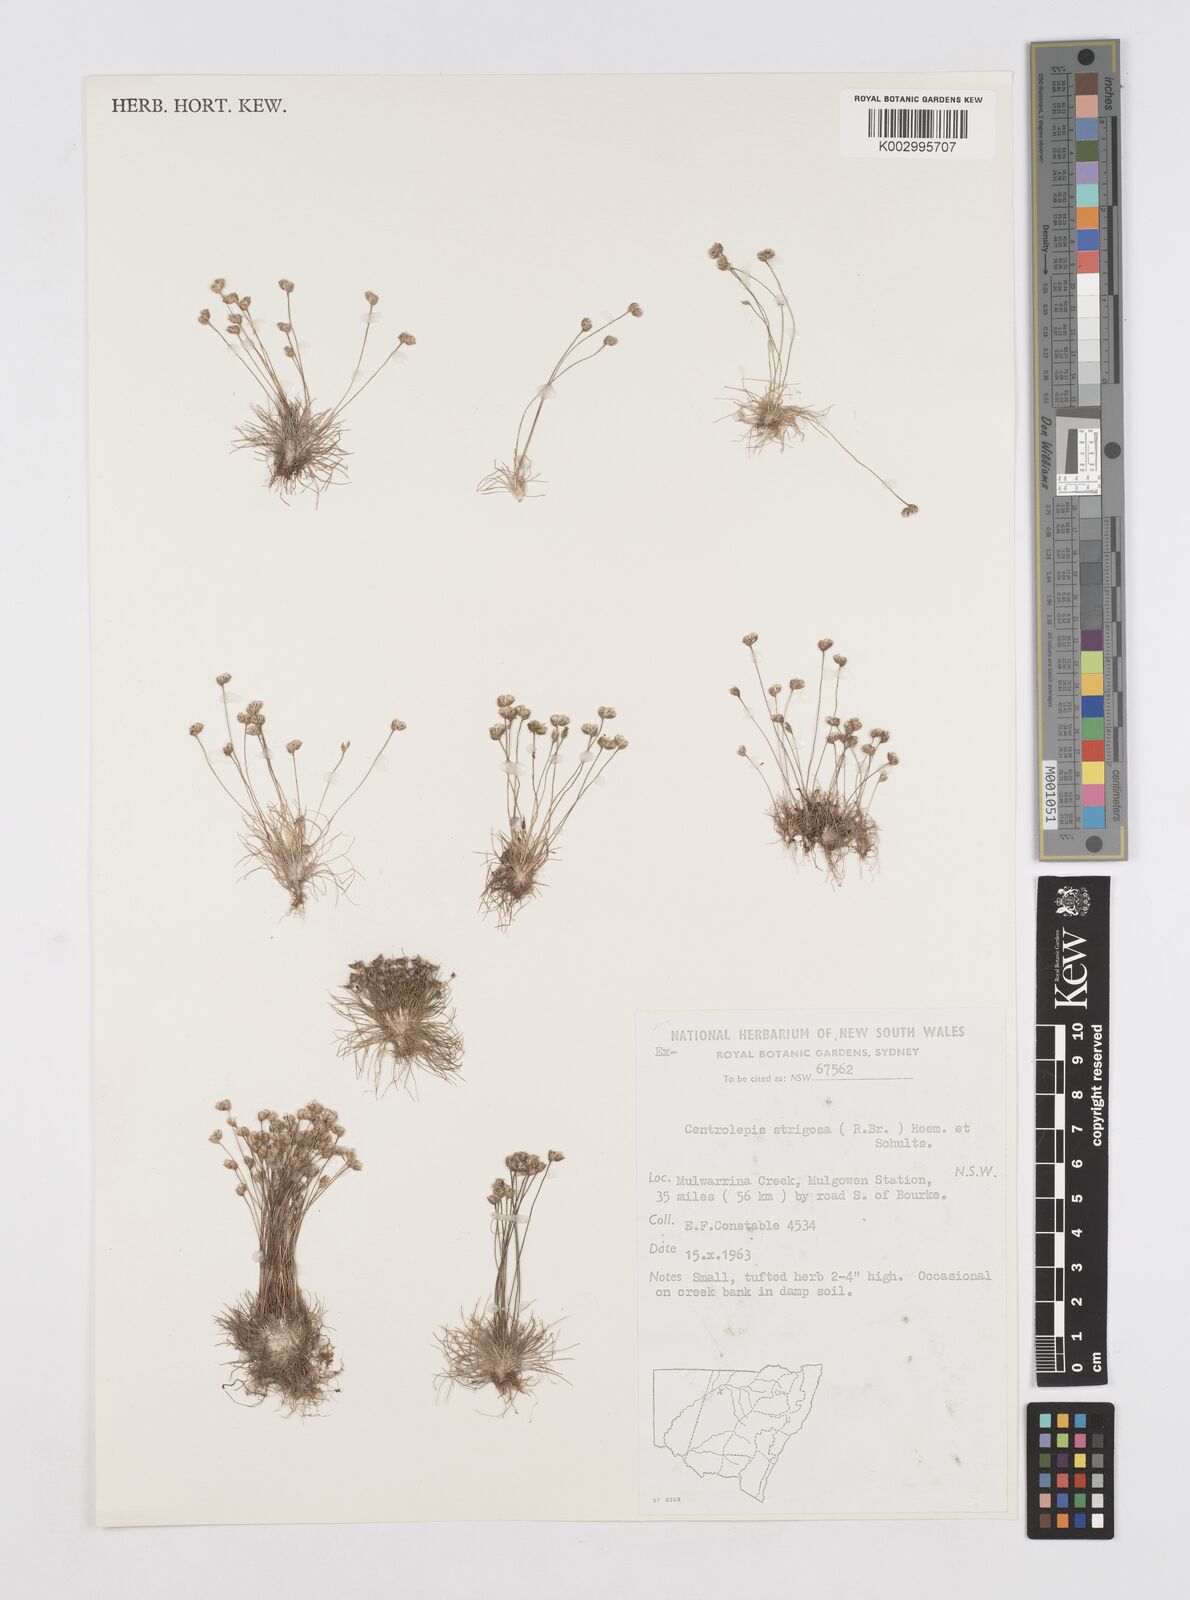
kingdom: Plantae
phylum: Tracheophyta
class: Liliopsida
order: Poales
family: Restionaceae
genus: Centrolepis
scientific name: Centrolepis strigosa
